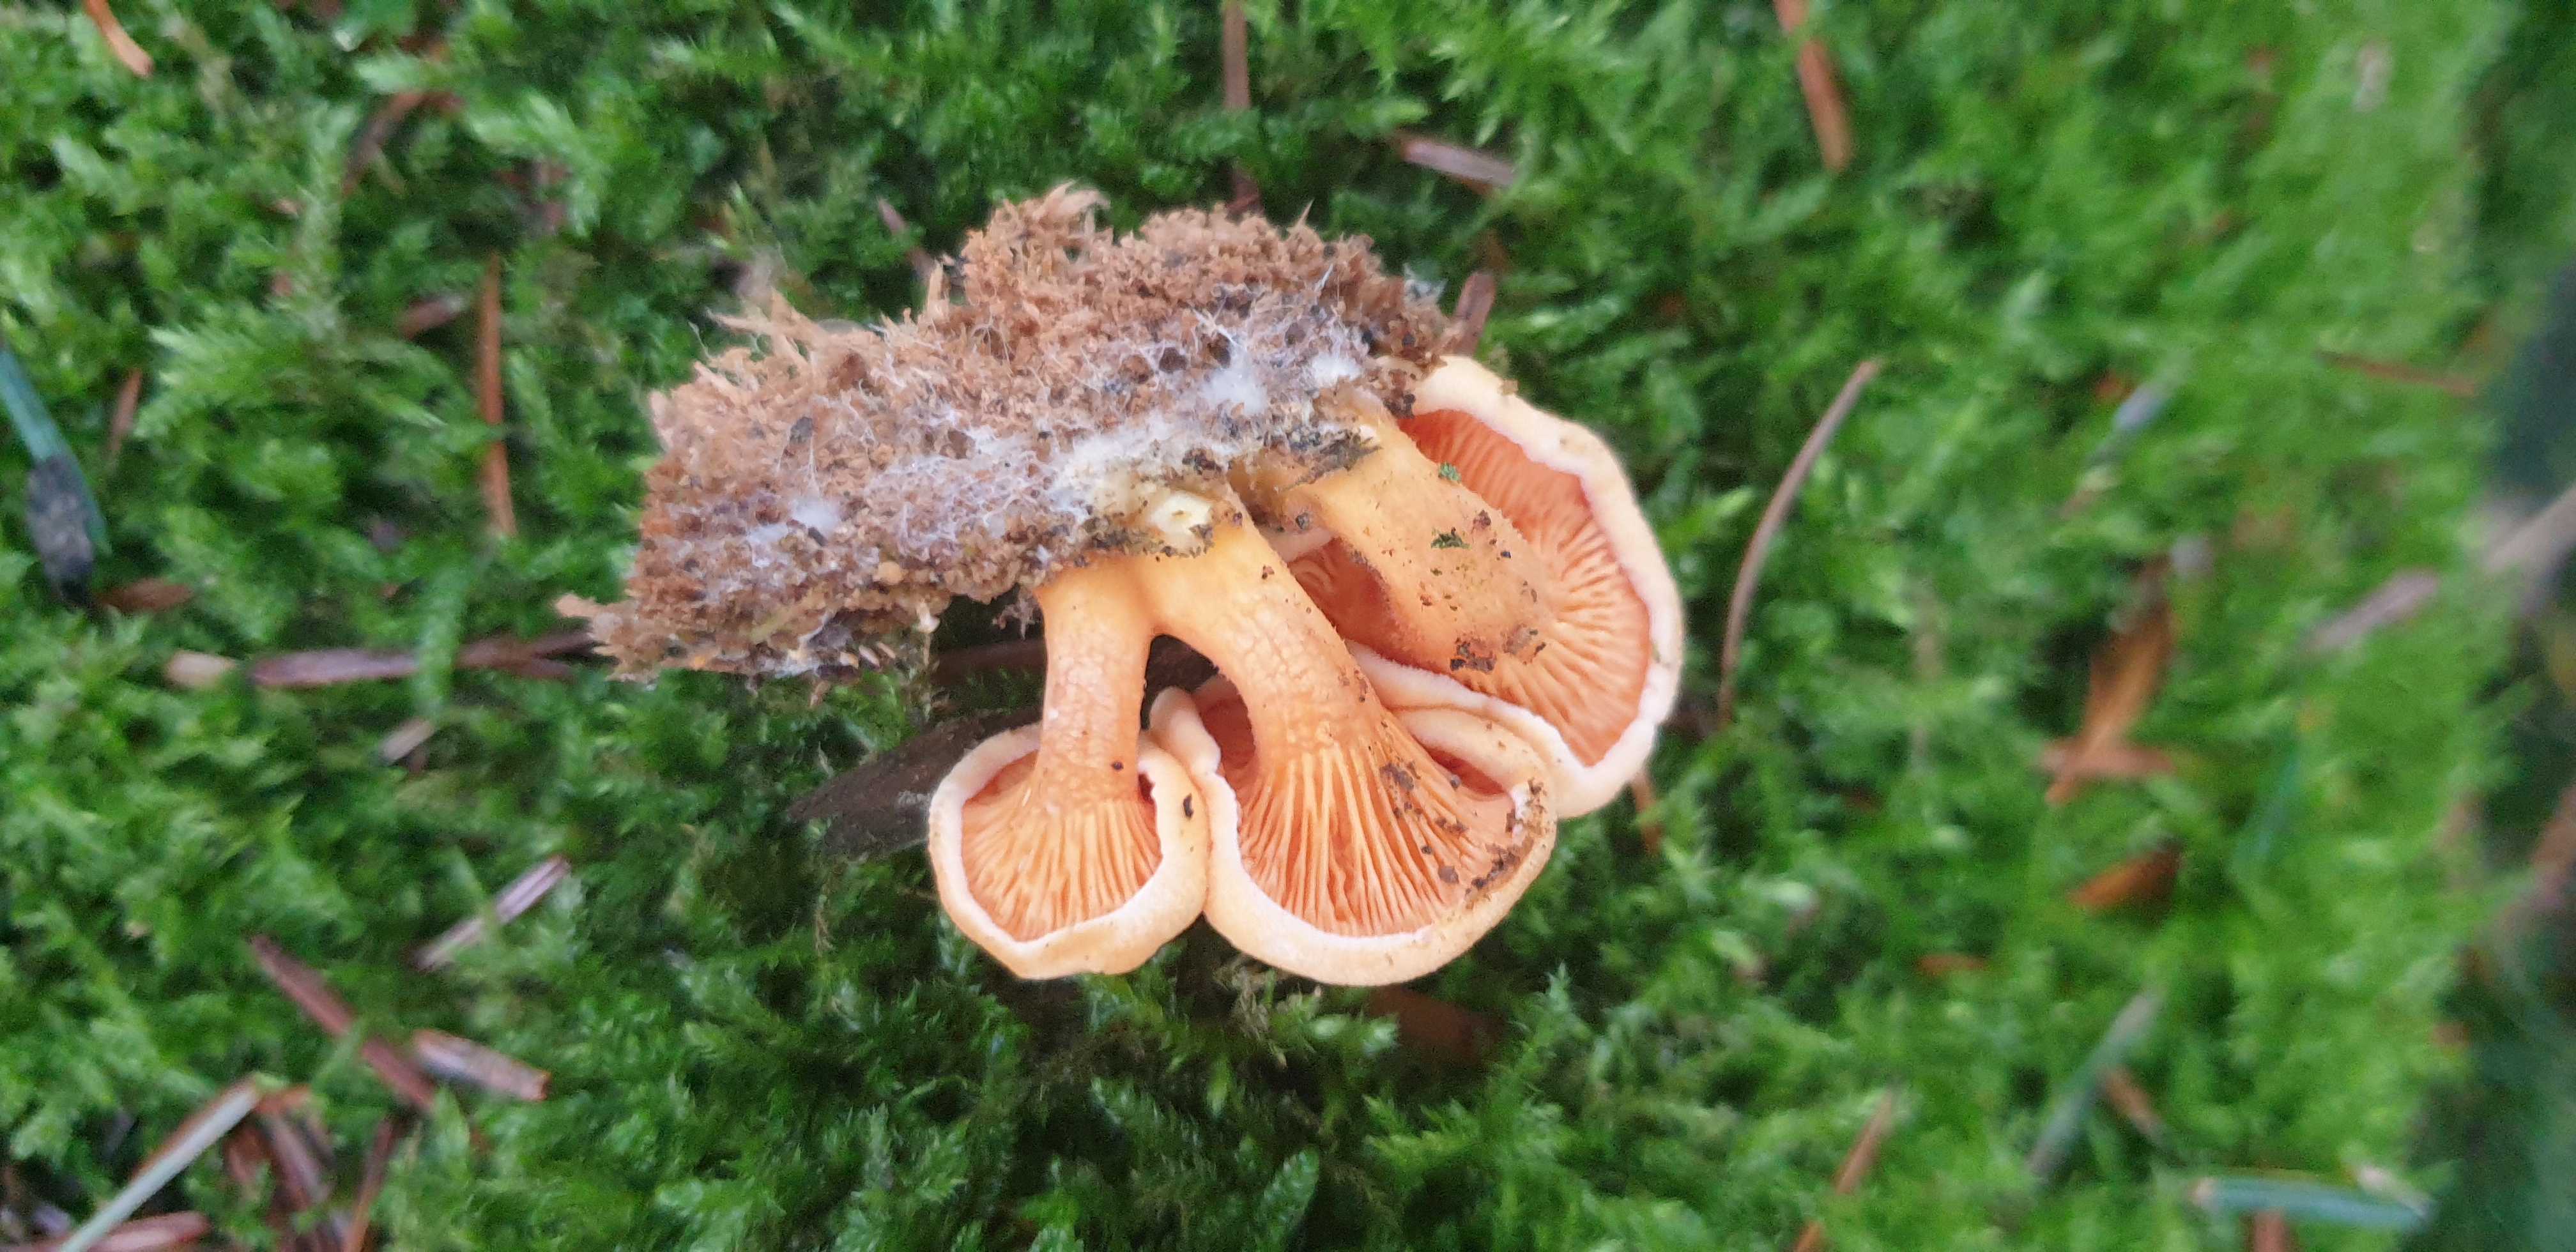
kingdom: Fungi
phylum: Basidiomycota
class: Agaricomycetes
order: Boletales
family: Hygrophoropsidaceae
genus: Hygrophoropsis
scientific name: Hygrophoropsis aurantiaca
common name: almindelig orangekantarel
